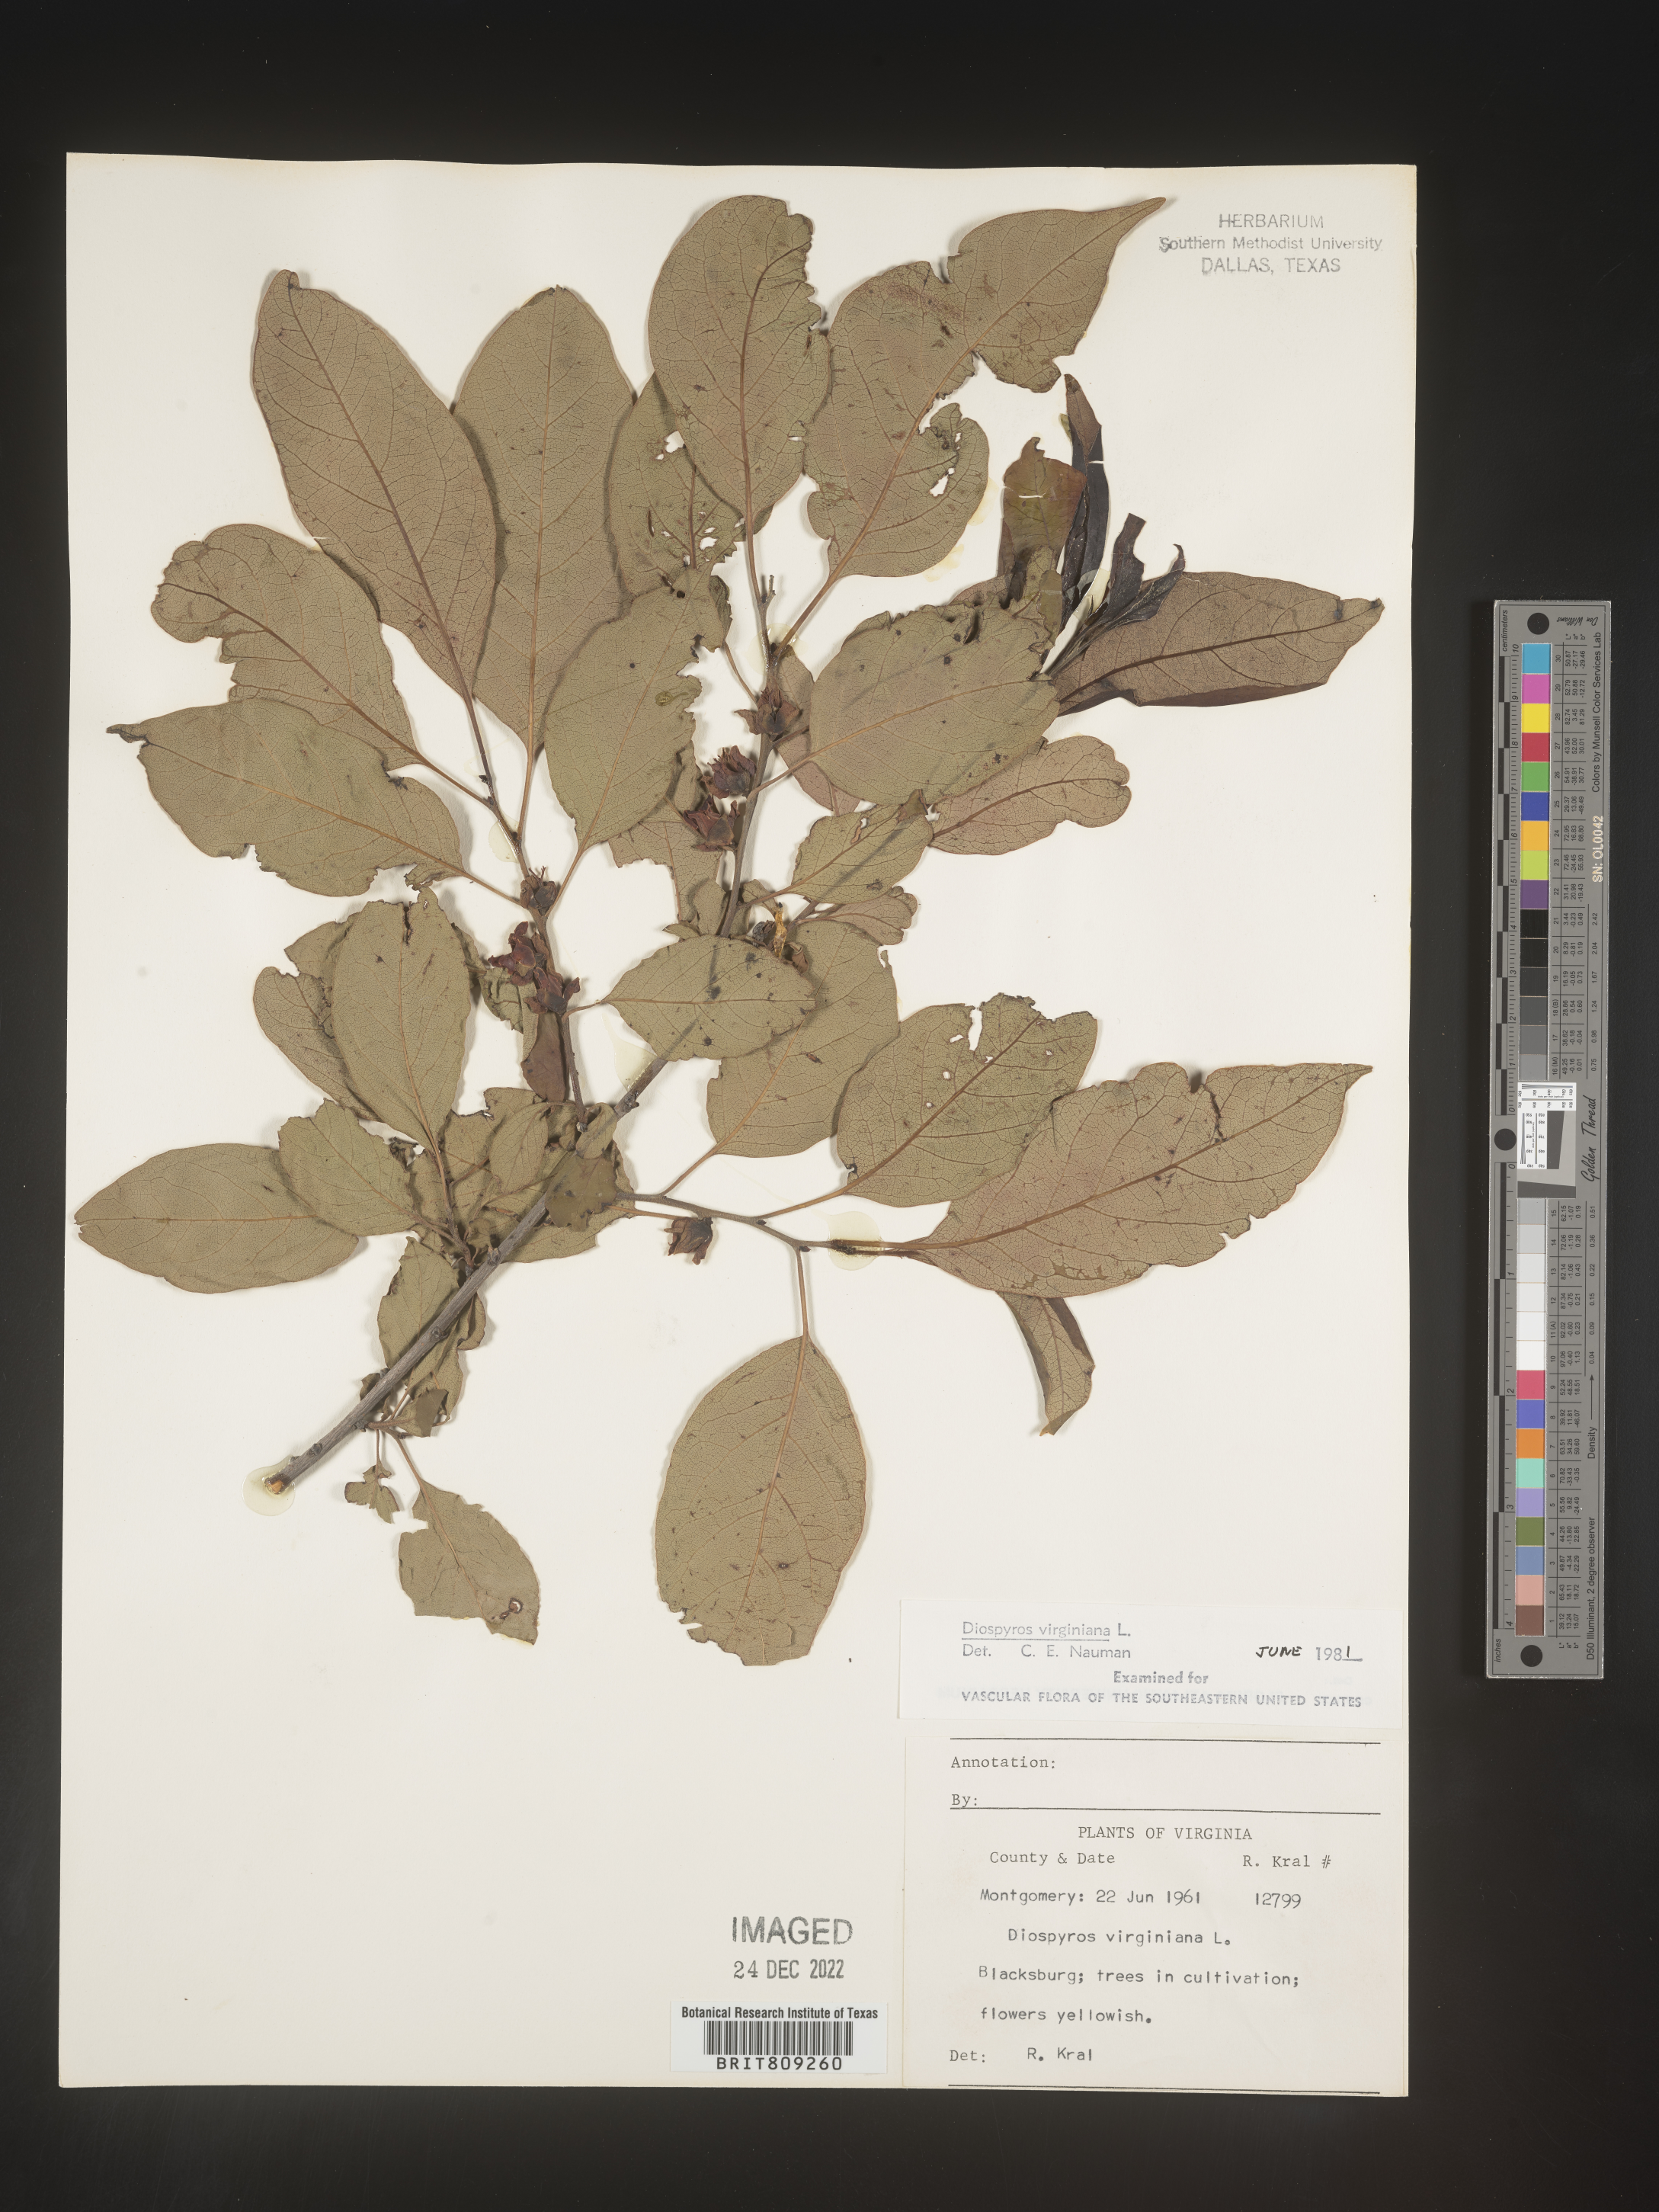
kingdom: Plantae
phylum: Tracheophyta
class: Magnoliopsida
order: Ericales
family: Ebenaceae
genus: Diospyros
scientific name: Diospyros virginiana
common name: Persimmon
